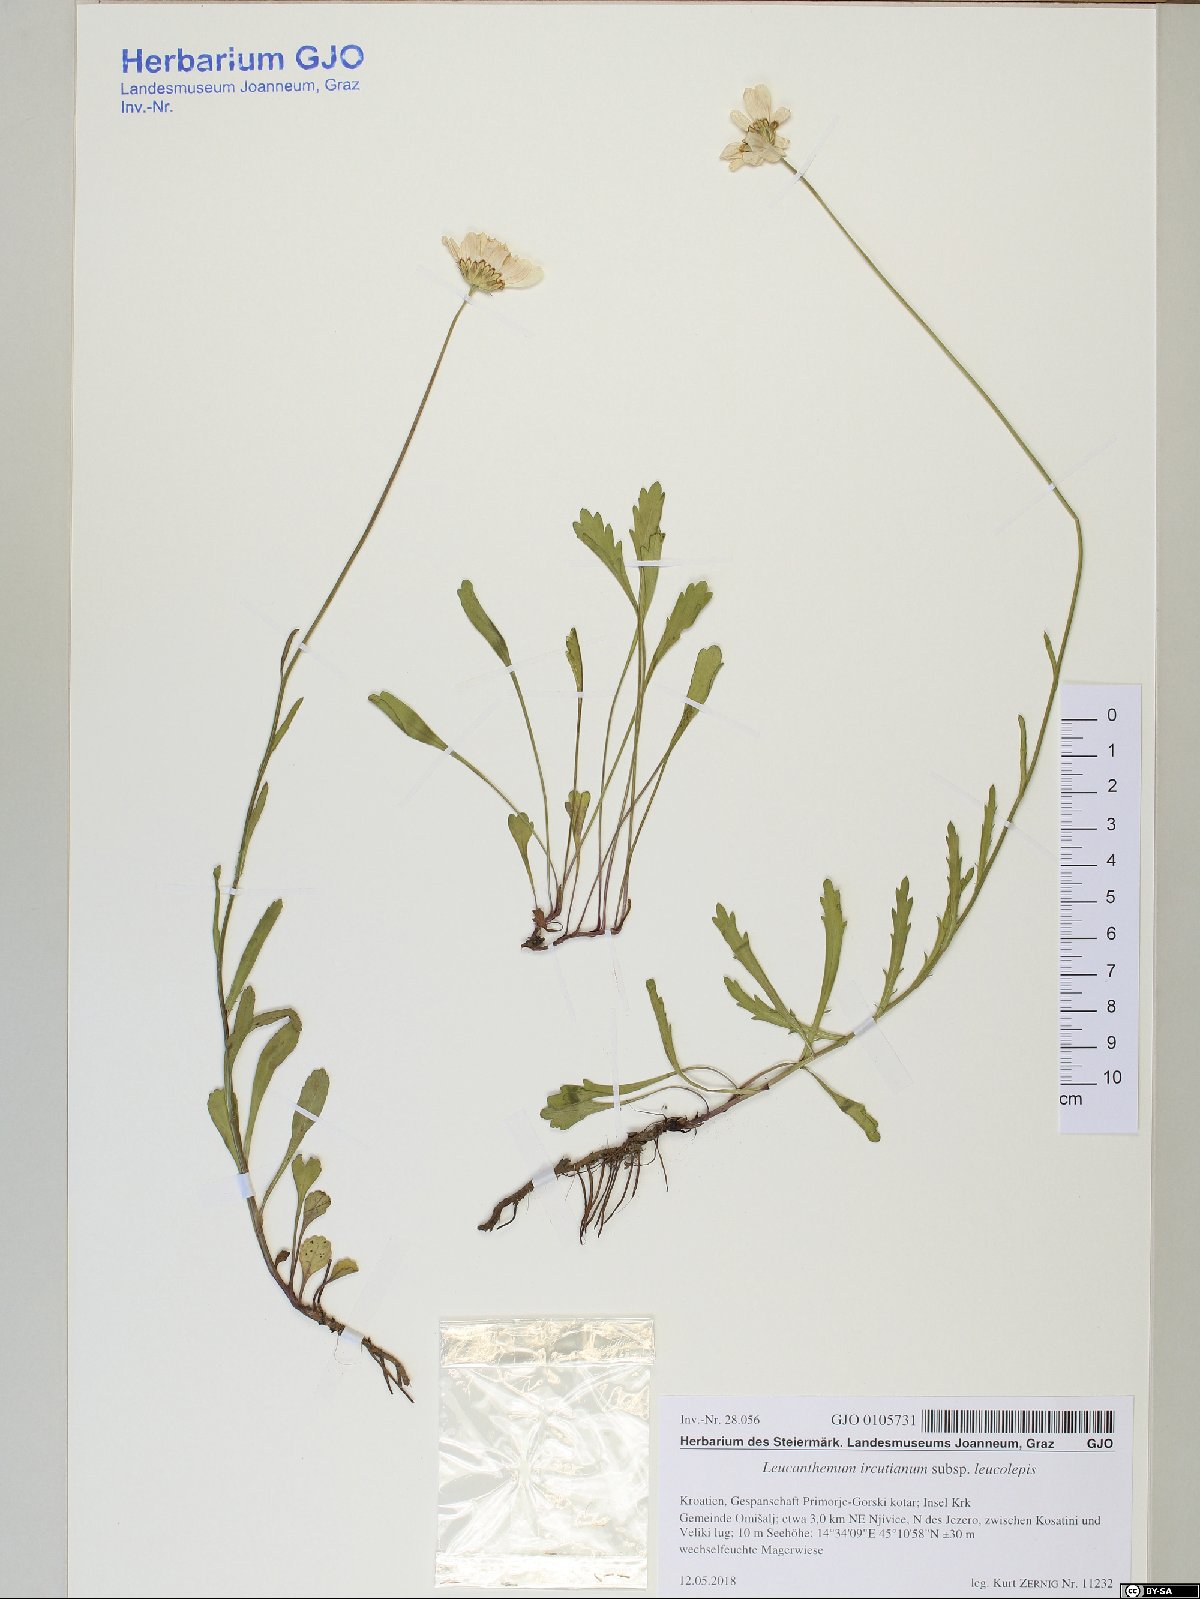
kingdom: Plantae
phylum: Tracheophyta
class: Magnoliopsida
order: Asterales
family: Asteraceae
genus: Leucanthemum
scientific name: Leucanthemum ircutianum
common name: Daisy
